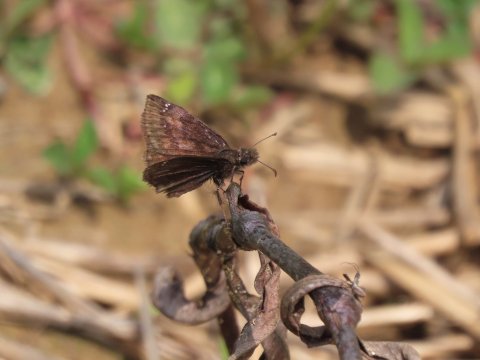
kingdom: Animalia
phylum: Arthropoda
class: Insecta
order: Lepidoptera
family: Hesperiidae
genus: Gesta
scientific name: Gesta
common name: Wild Indigo Duskywing
